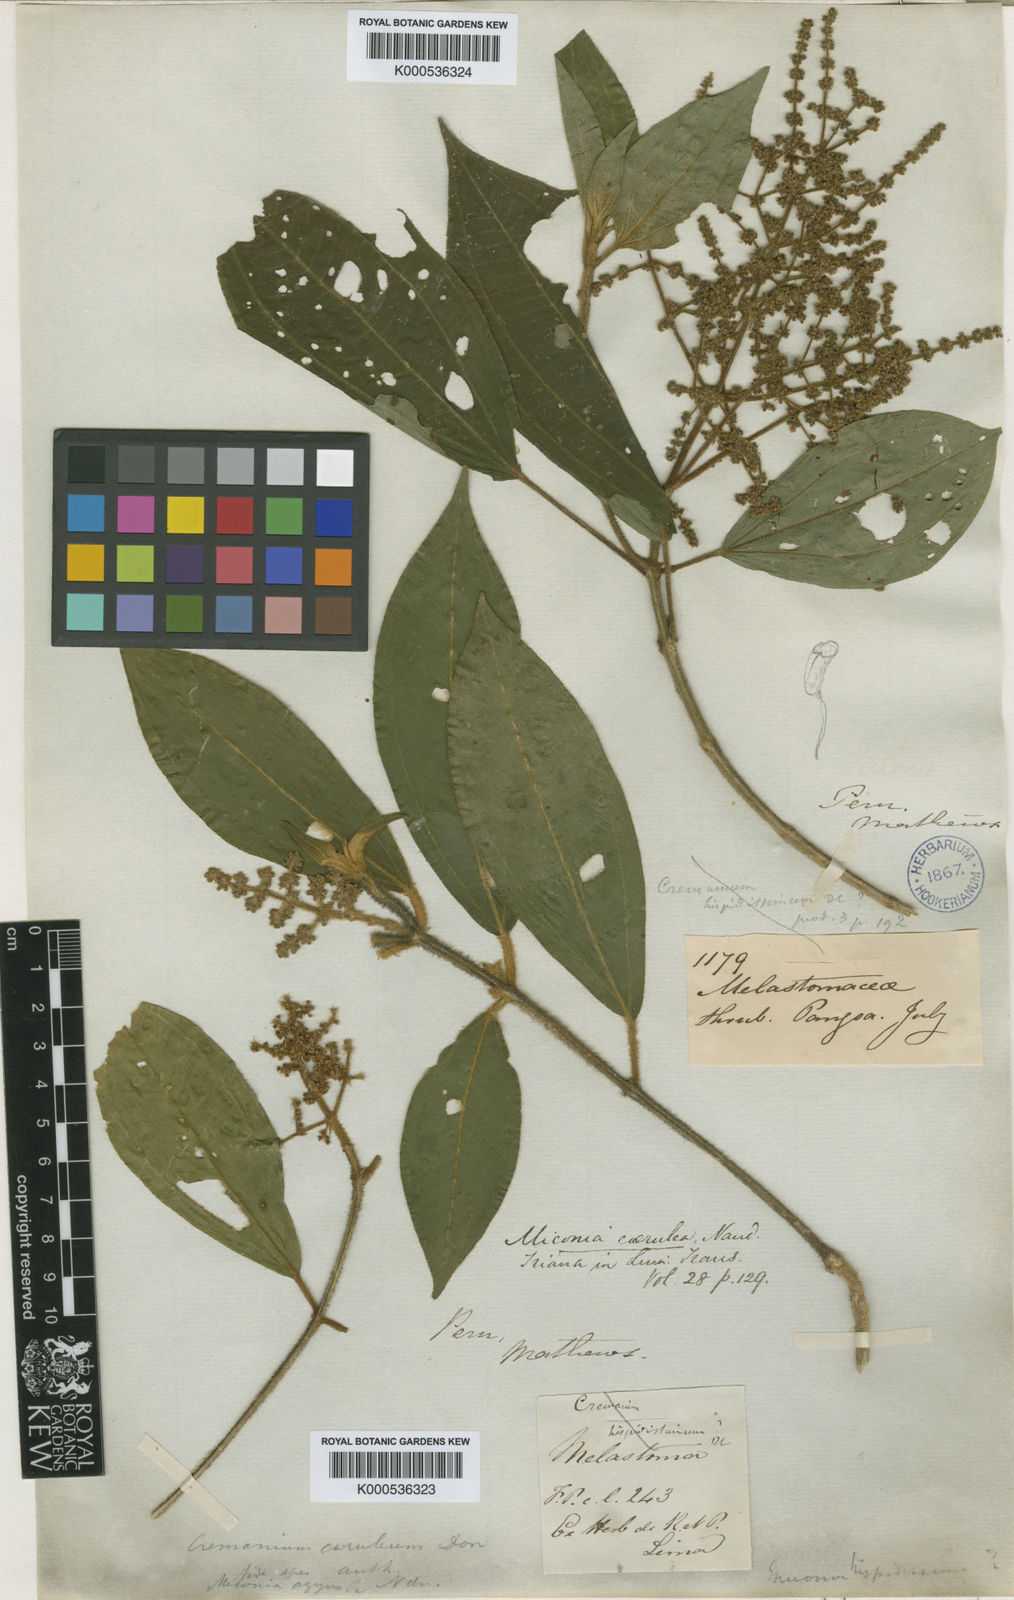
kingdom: Plantae
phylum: Tracheophyta
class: Magnoliopsida
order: Myrtales
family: Melastomataceae
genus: Miconia
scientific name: Miconia caerulea
